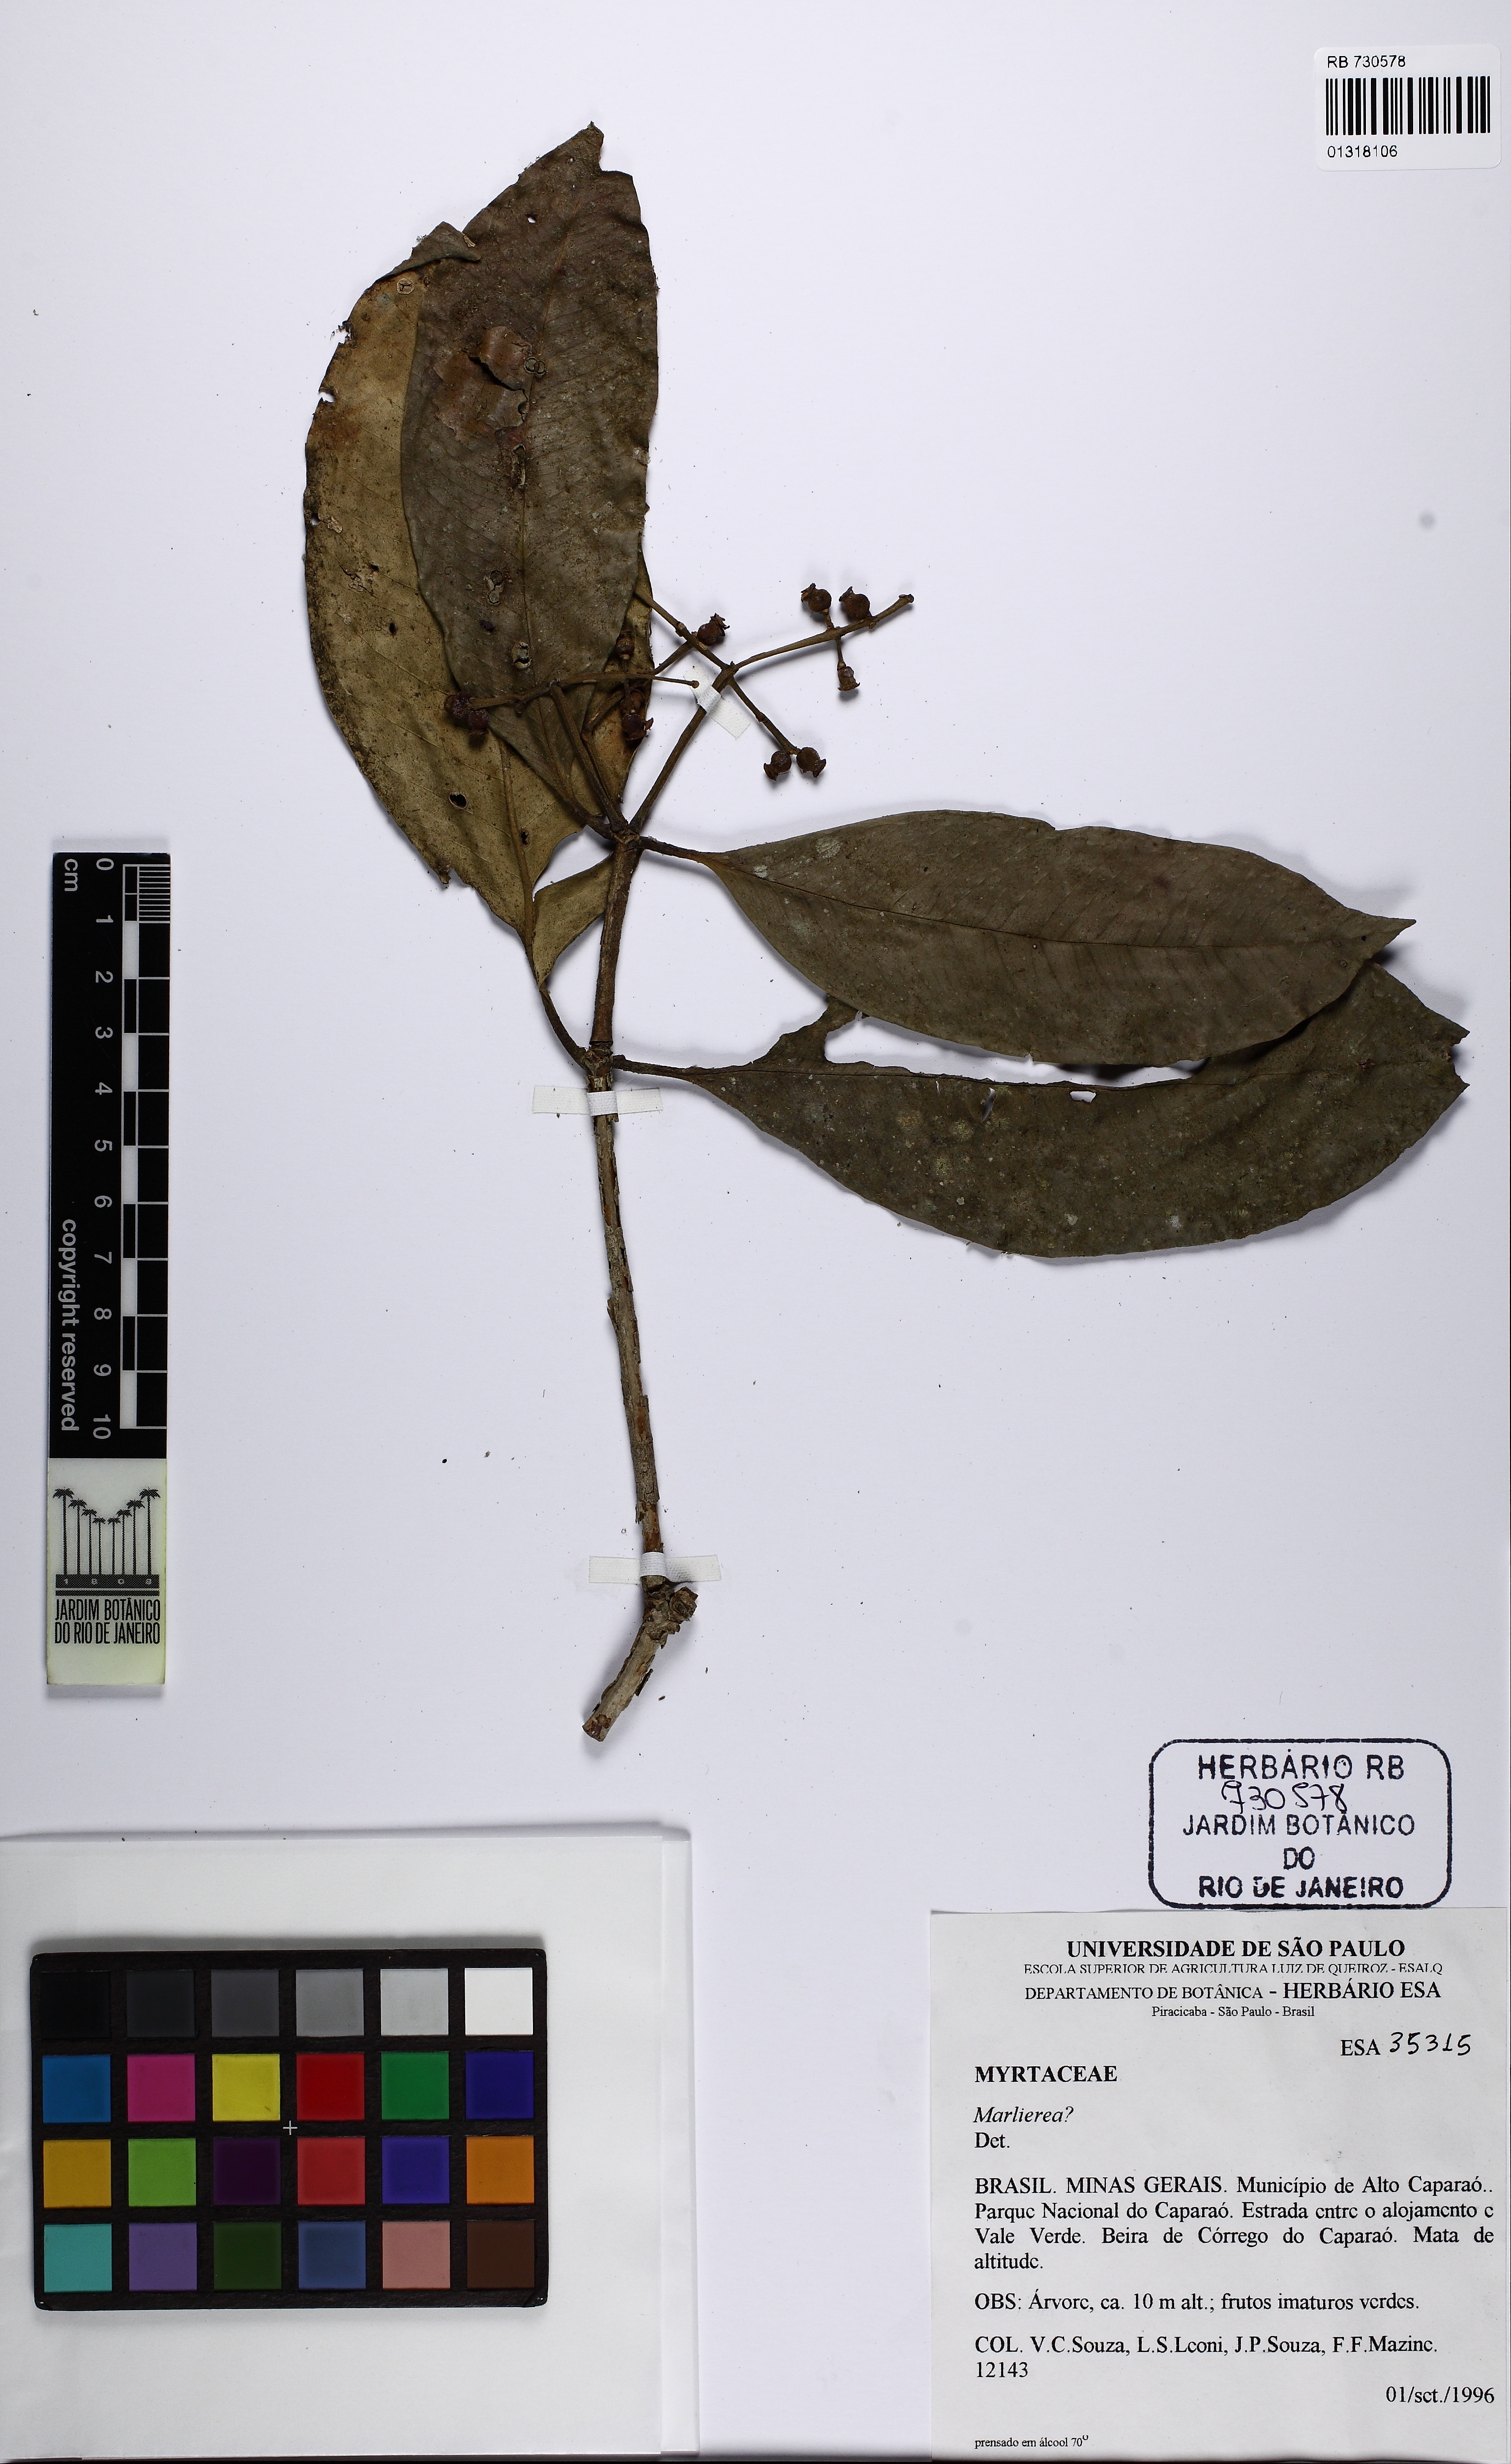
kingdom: Plantae
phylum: Tracheophyta
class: Magnoliopsida
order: Myrtales
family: Myrtaceae
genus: Marlierea
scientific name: Marlierea
